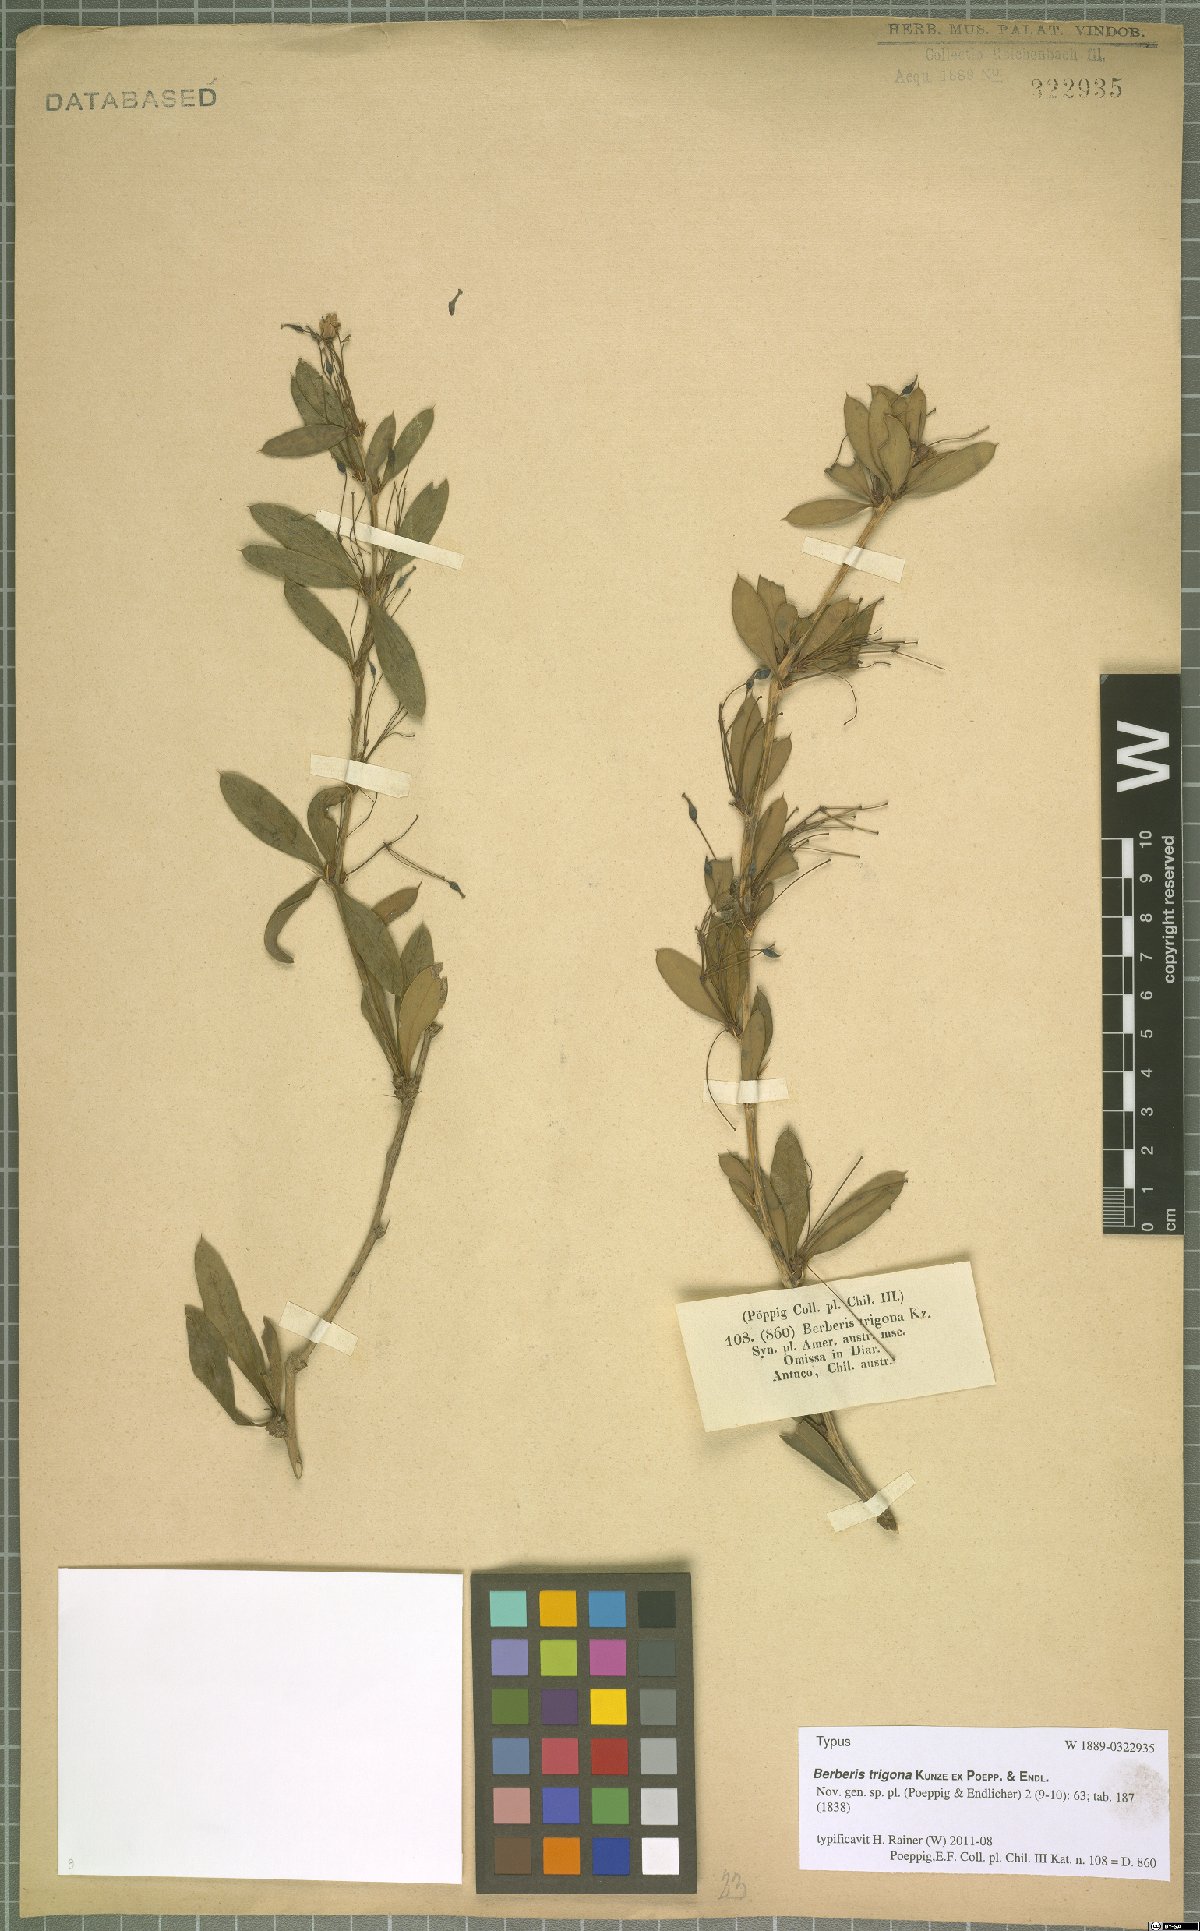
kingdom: Plantae
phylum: Tracheophyta
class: Magnoliopsida
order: Ranunculales
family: Berberidaceae
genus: Berberis
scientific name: Berberis trigona
